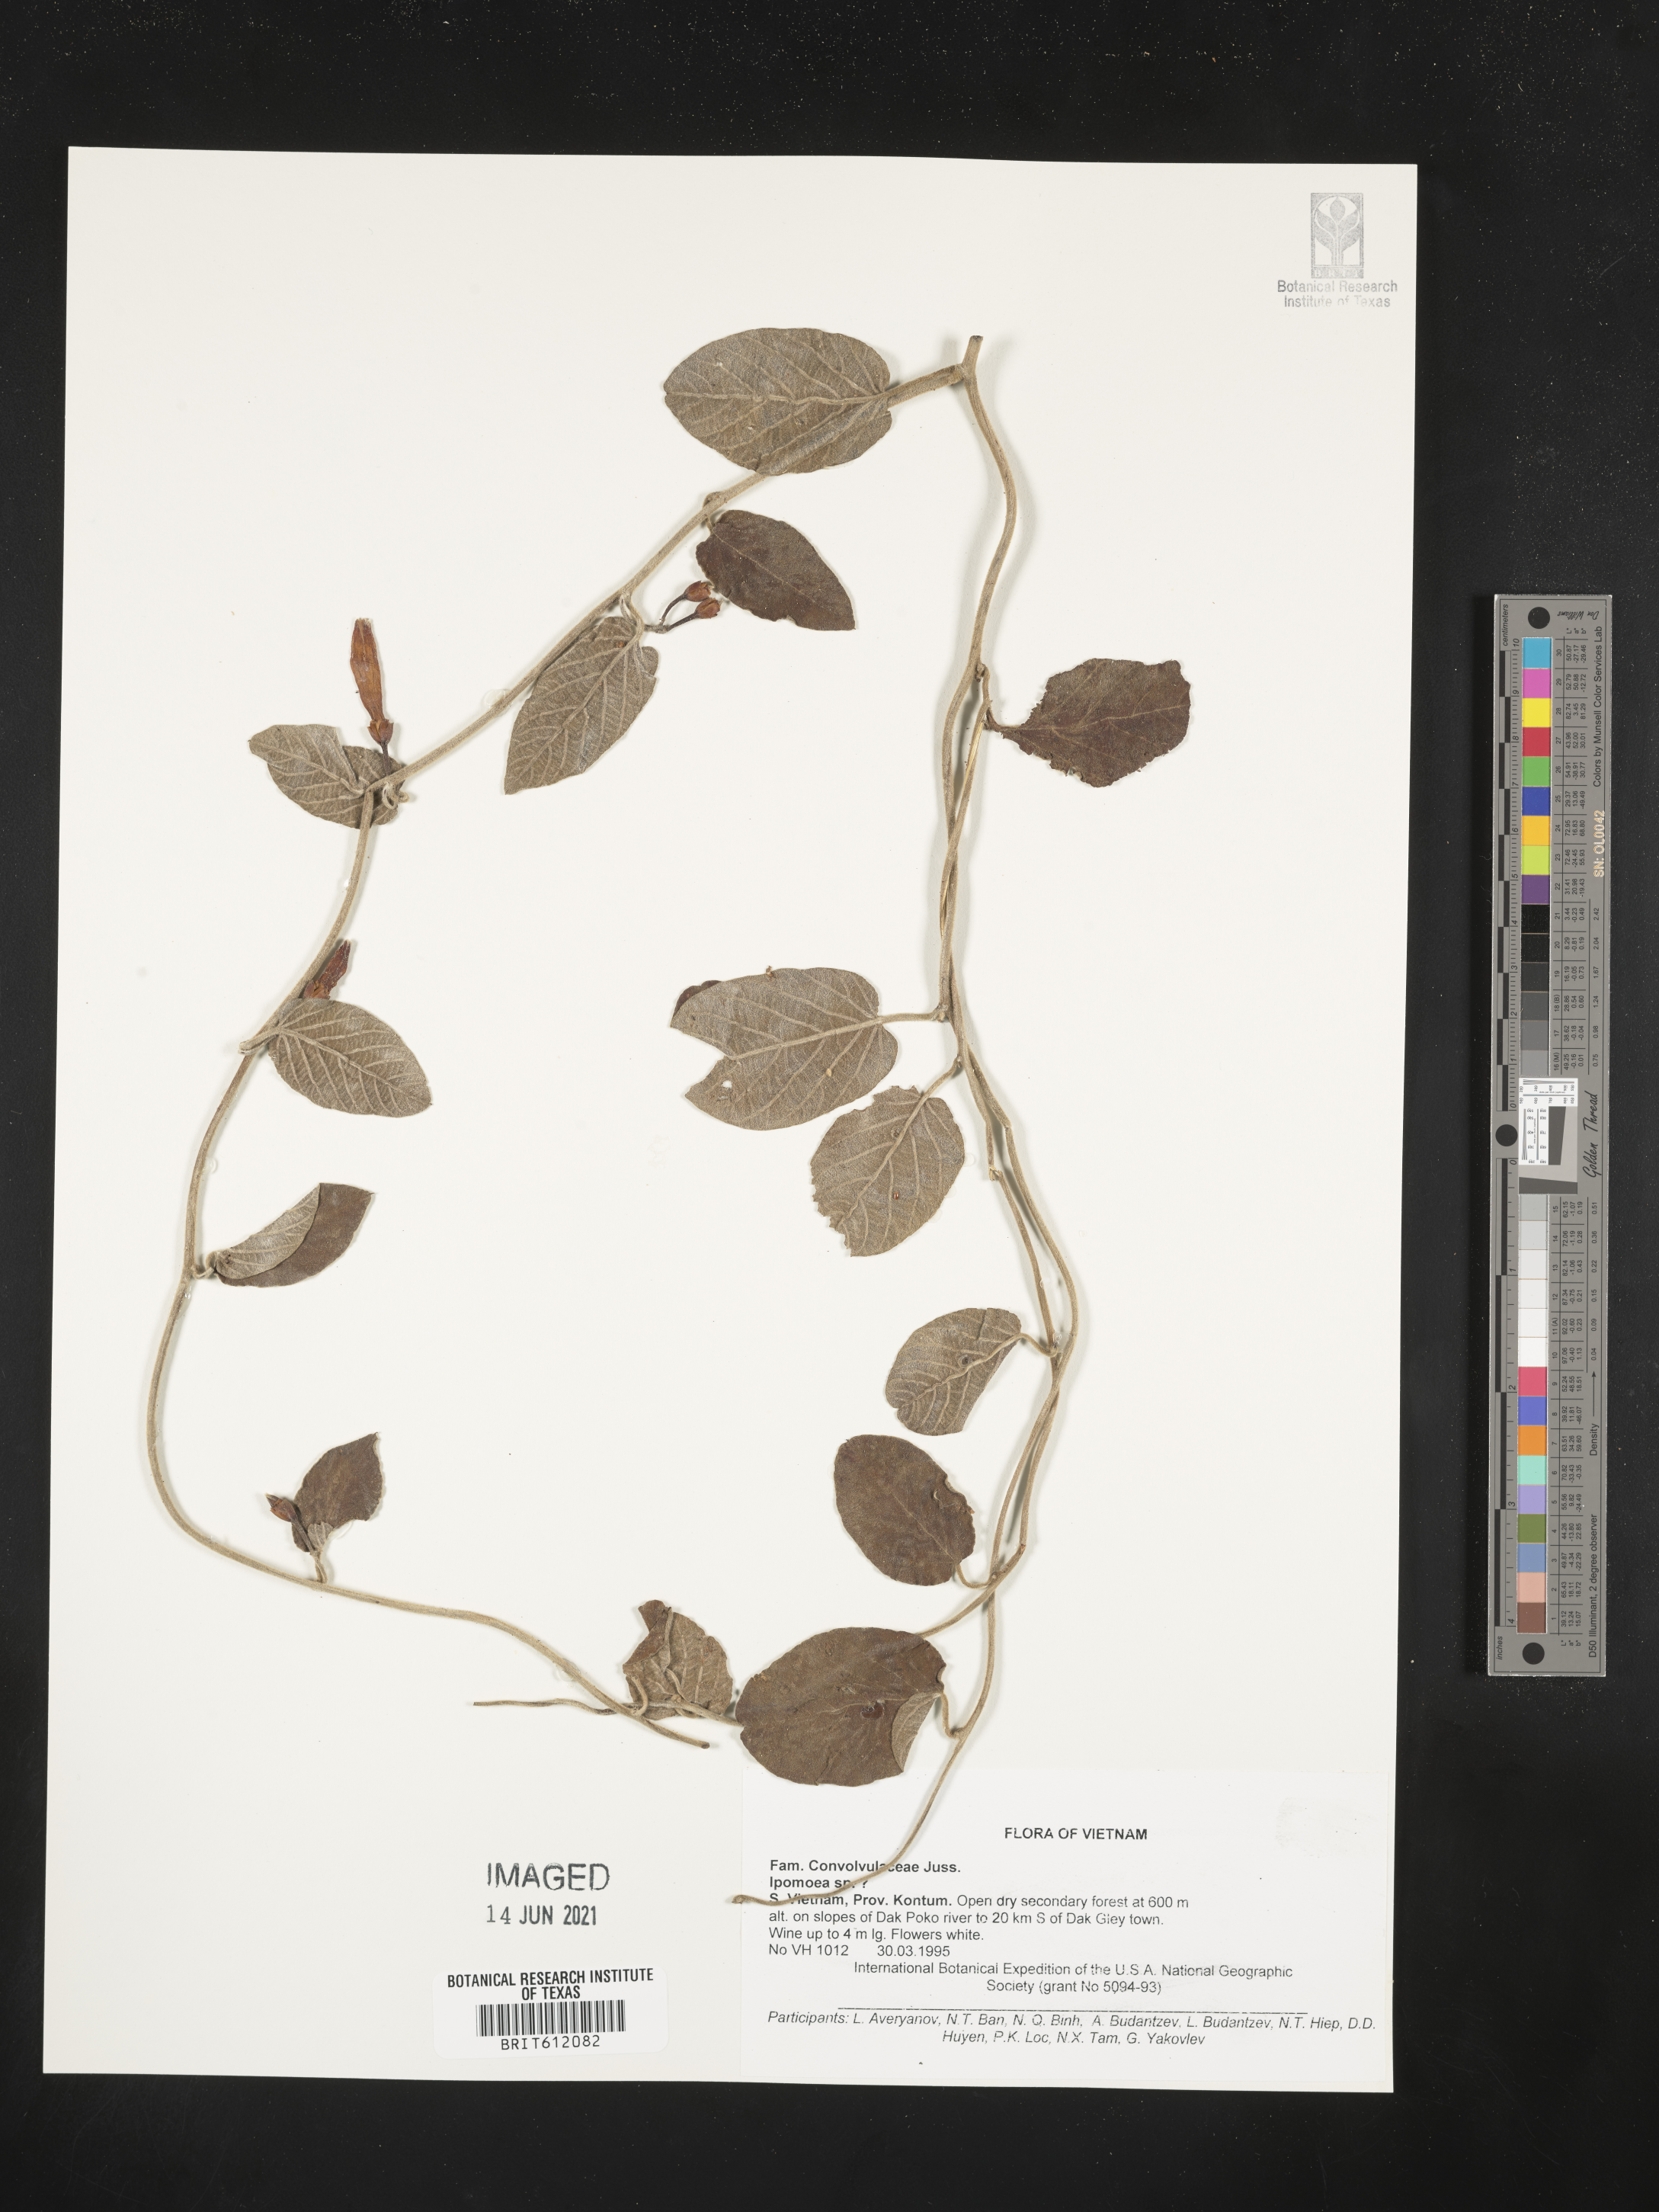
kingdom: Plantae
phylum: Tracheophyta
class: Magnoliopsida
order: Solanales
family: Convolvulaceae
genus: Ipomoea
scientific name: Ipomoea
